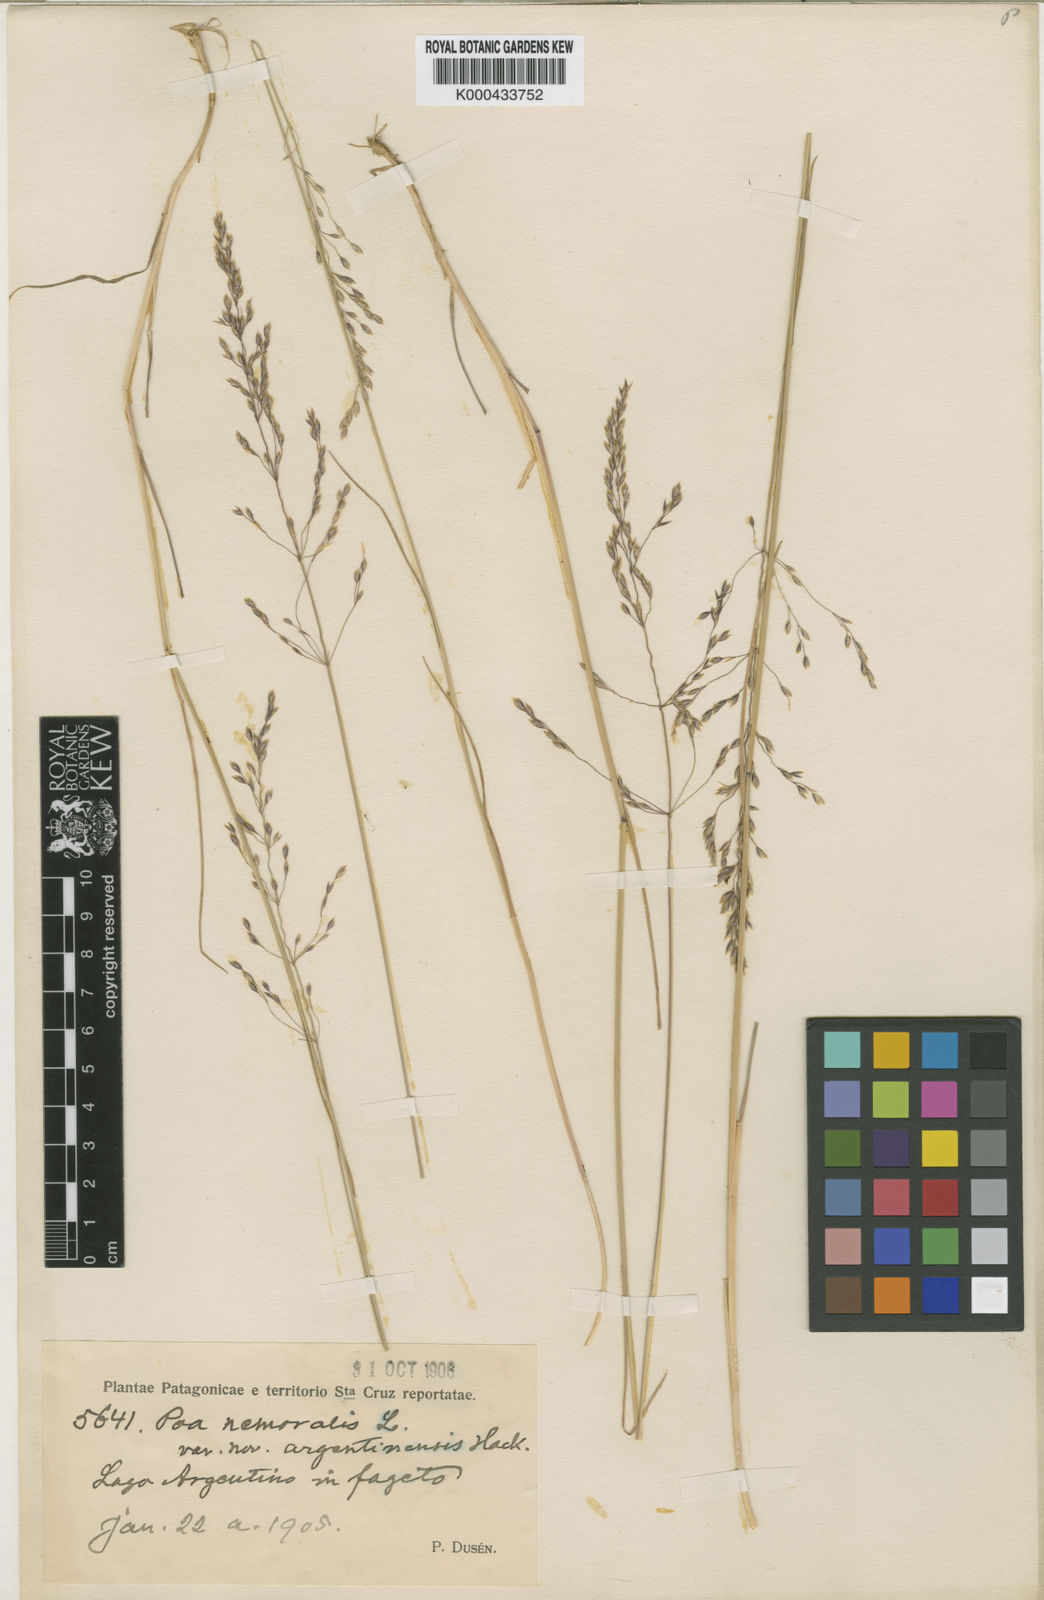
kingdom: Plantae
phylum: Tracheophyta
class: Liliopsida
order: Poales
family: Poaceae
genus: Poa
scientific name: Poa nemoralis
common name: Wood bluegrass
